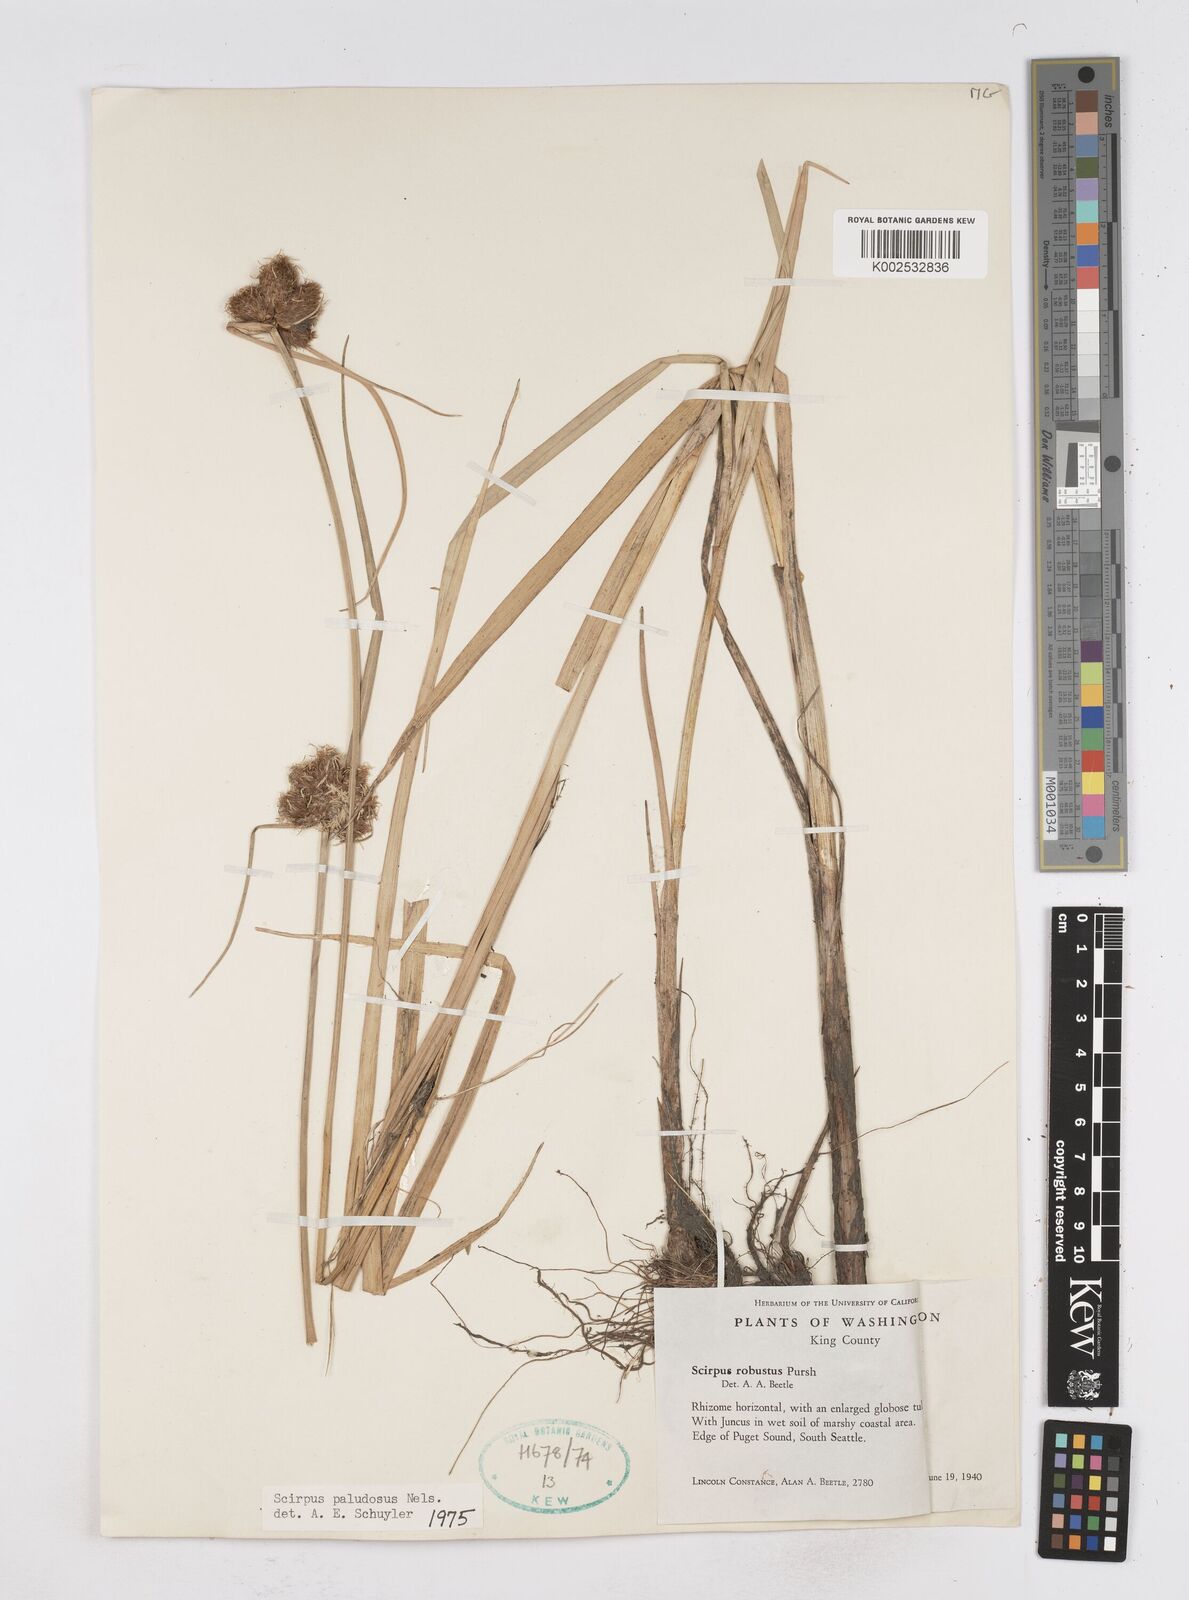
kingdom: Plantae
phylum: Tracheophyta
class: Liliopsida
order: Poales
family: Cyperaceae
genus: Bolboschoenus
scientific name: Bolboschoenus maritimus
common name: Sea club-rush
